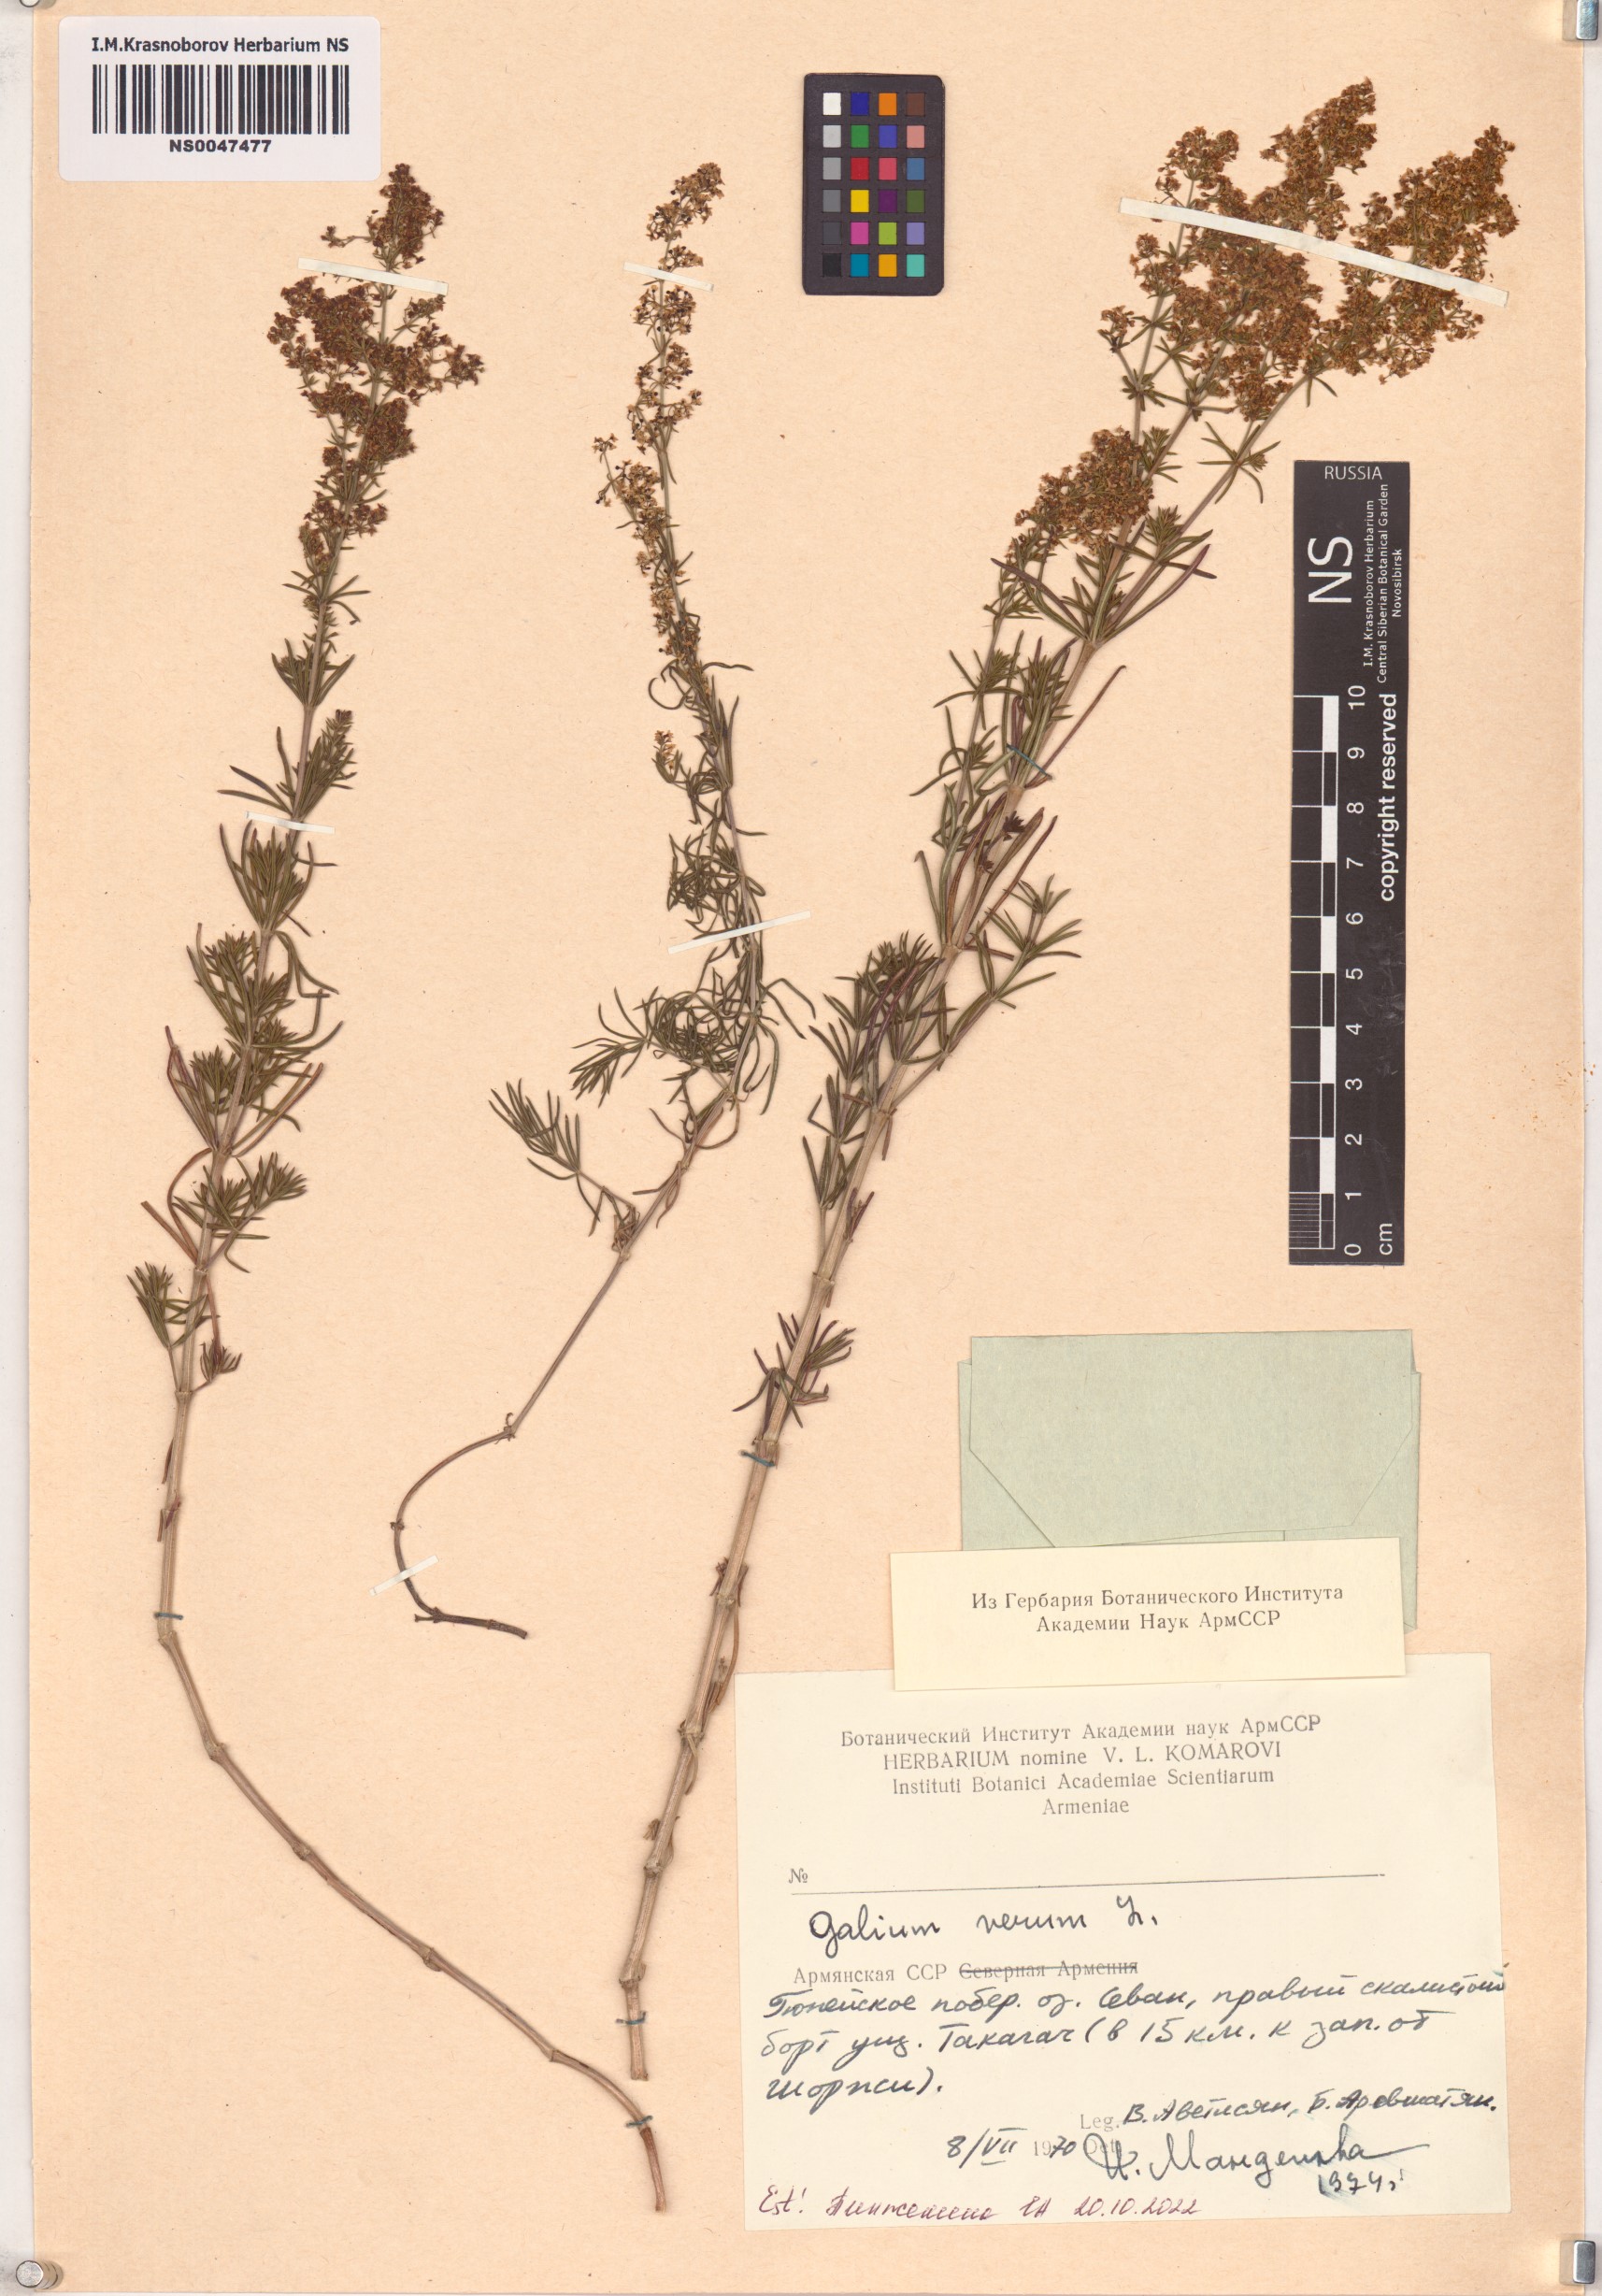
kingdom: Plantae
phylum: Tracheophyta
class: Magnoliopsida
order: Gentianales
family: Rubiaceae
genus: Galium
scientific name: Galium verum
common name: Lady's bedstraw
